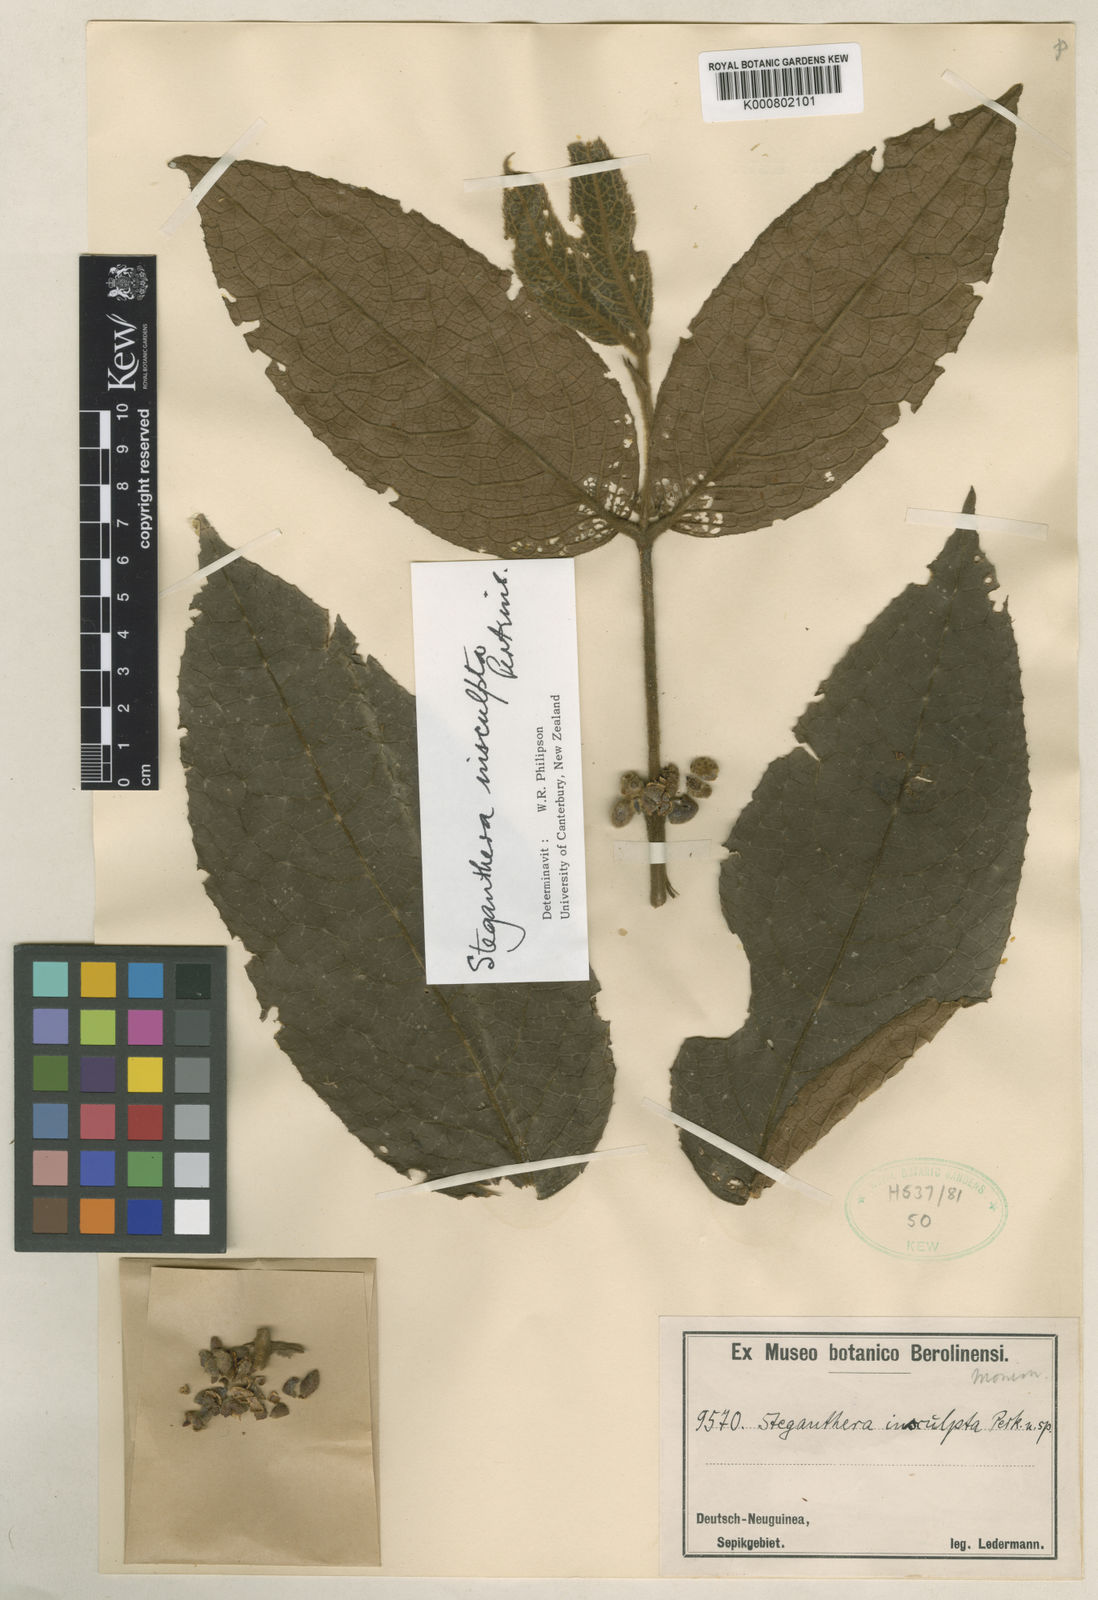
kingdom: Plantae
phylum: Tracheophyta
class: Magnoliopsida
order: Laurales
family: Monimiaceae
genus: Steganthera
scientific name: Steganthera insculpta
